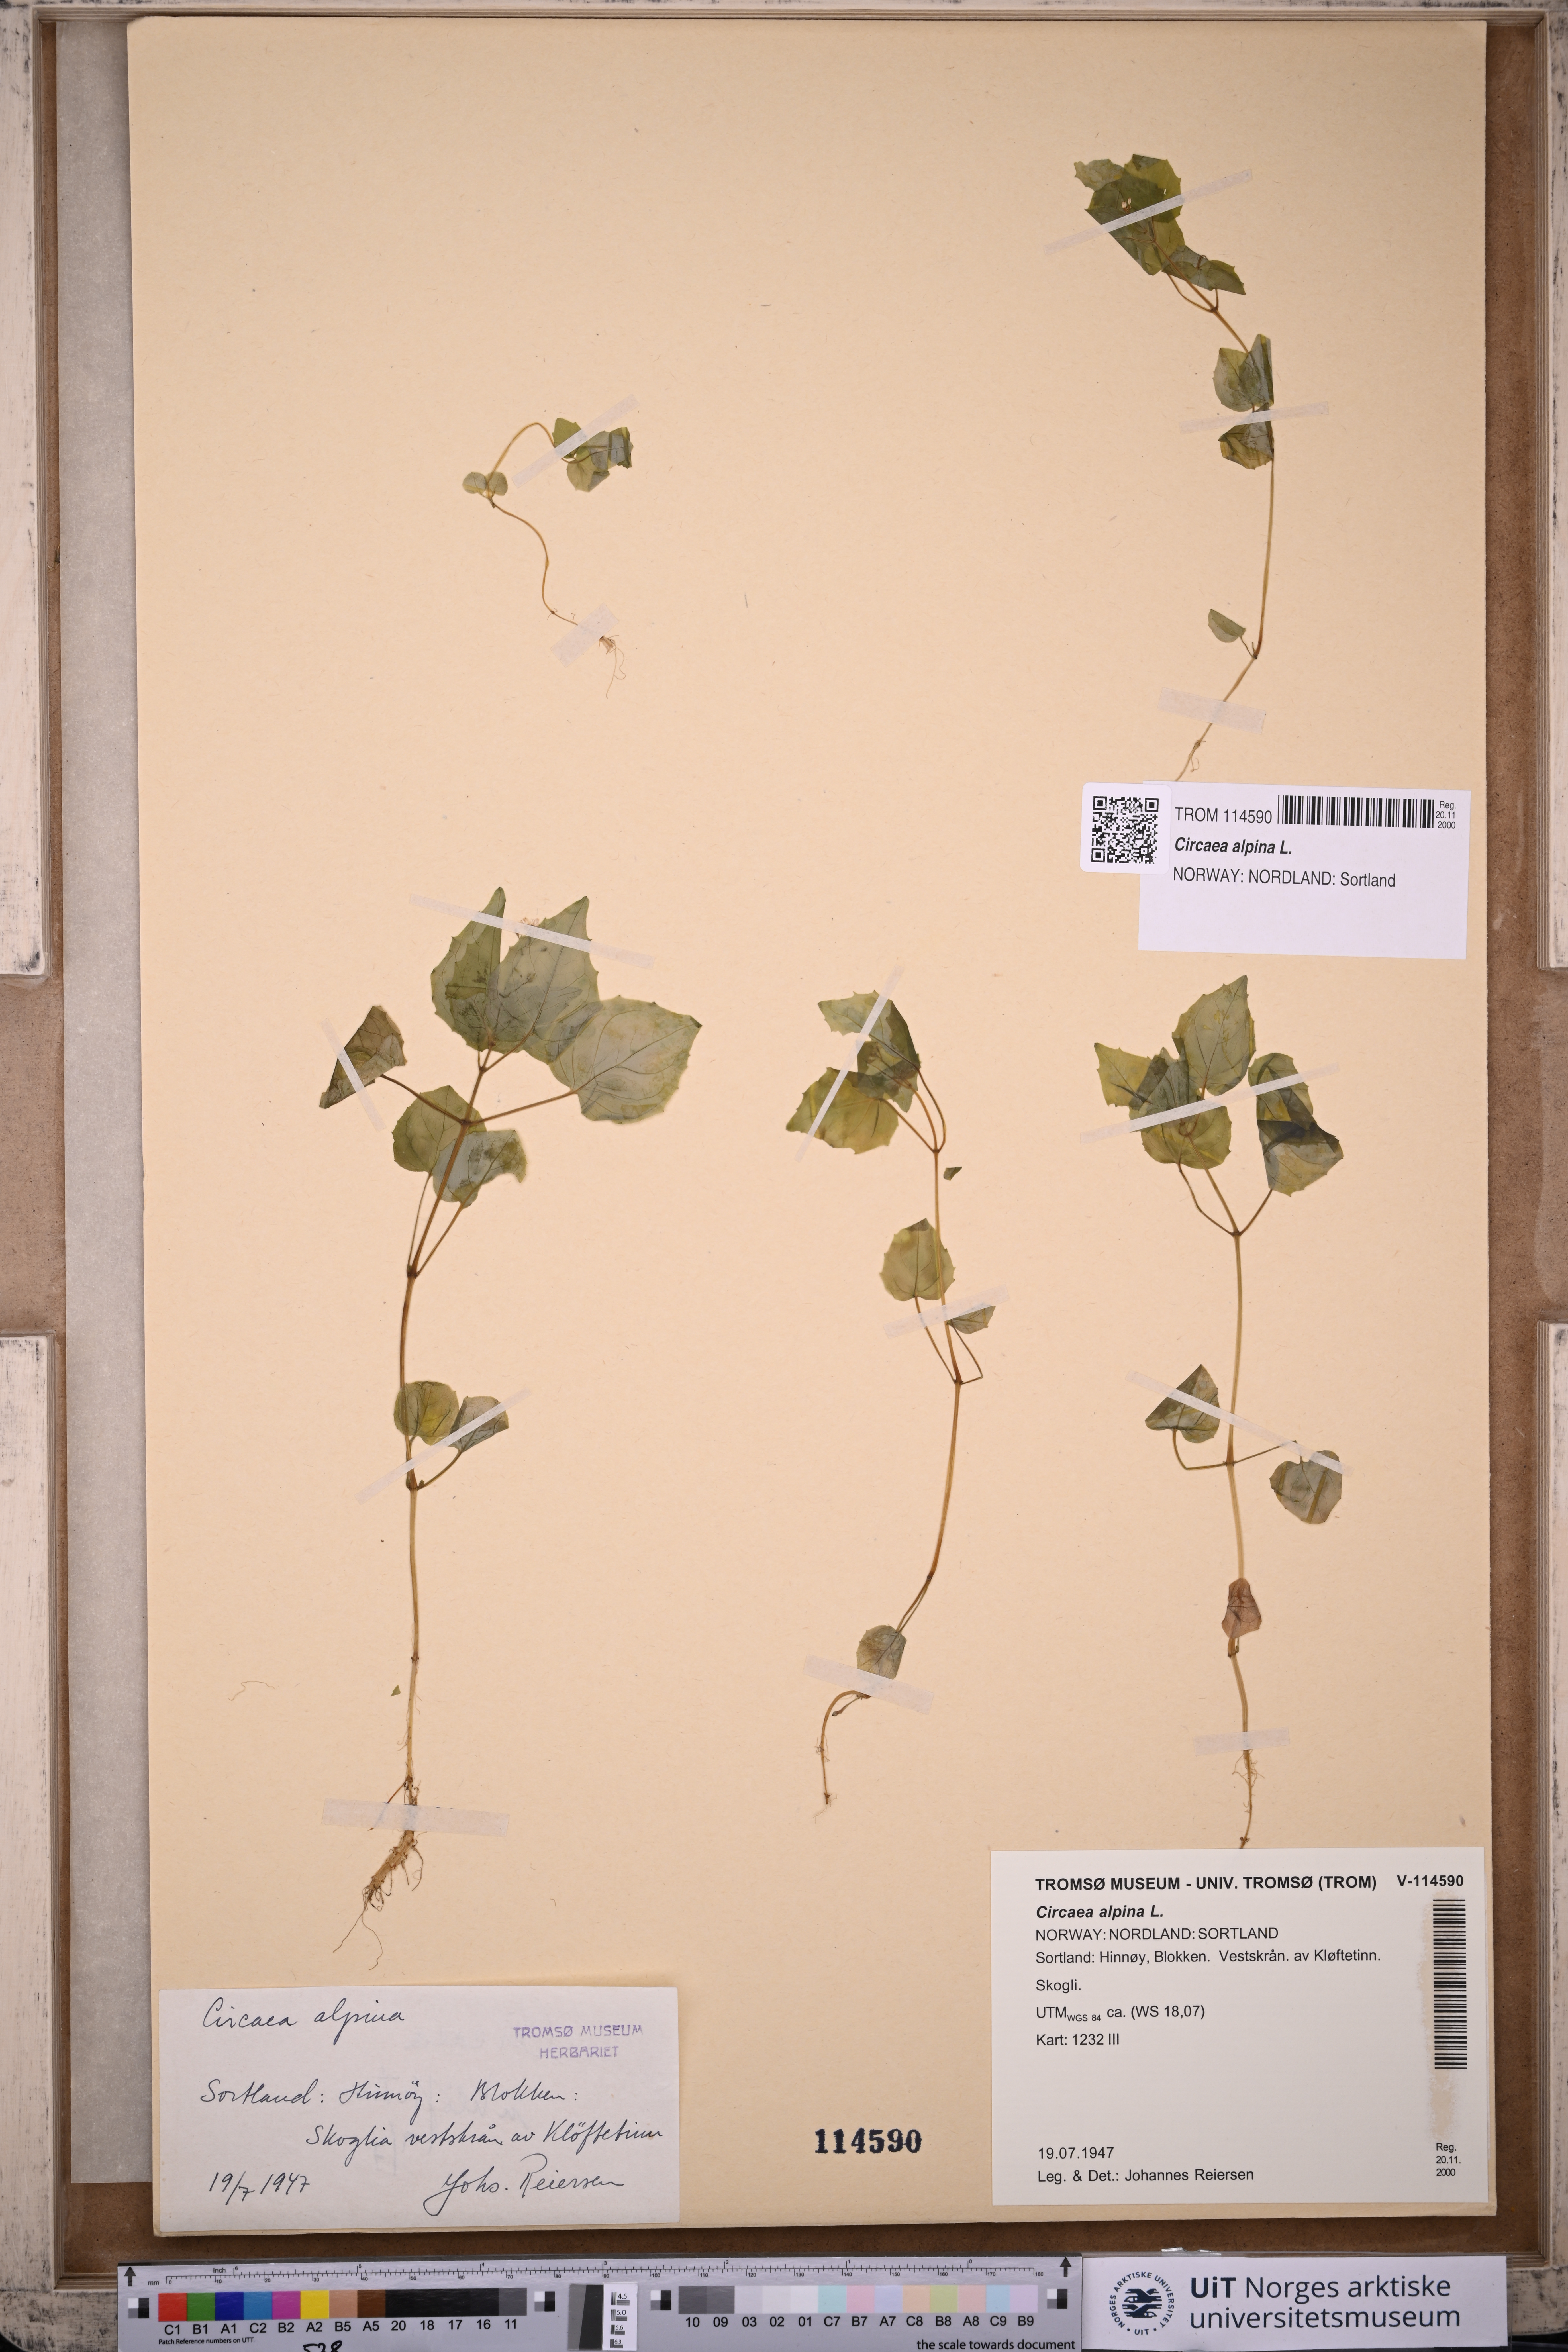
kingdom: Plantae
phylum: Tracheophyta
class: Magnoliopsida
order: Myrtales
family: Onagraceae
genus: Circaea
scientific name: Circaea alpina
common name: Alpine enchanter's-nightshade
